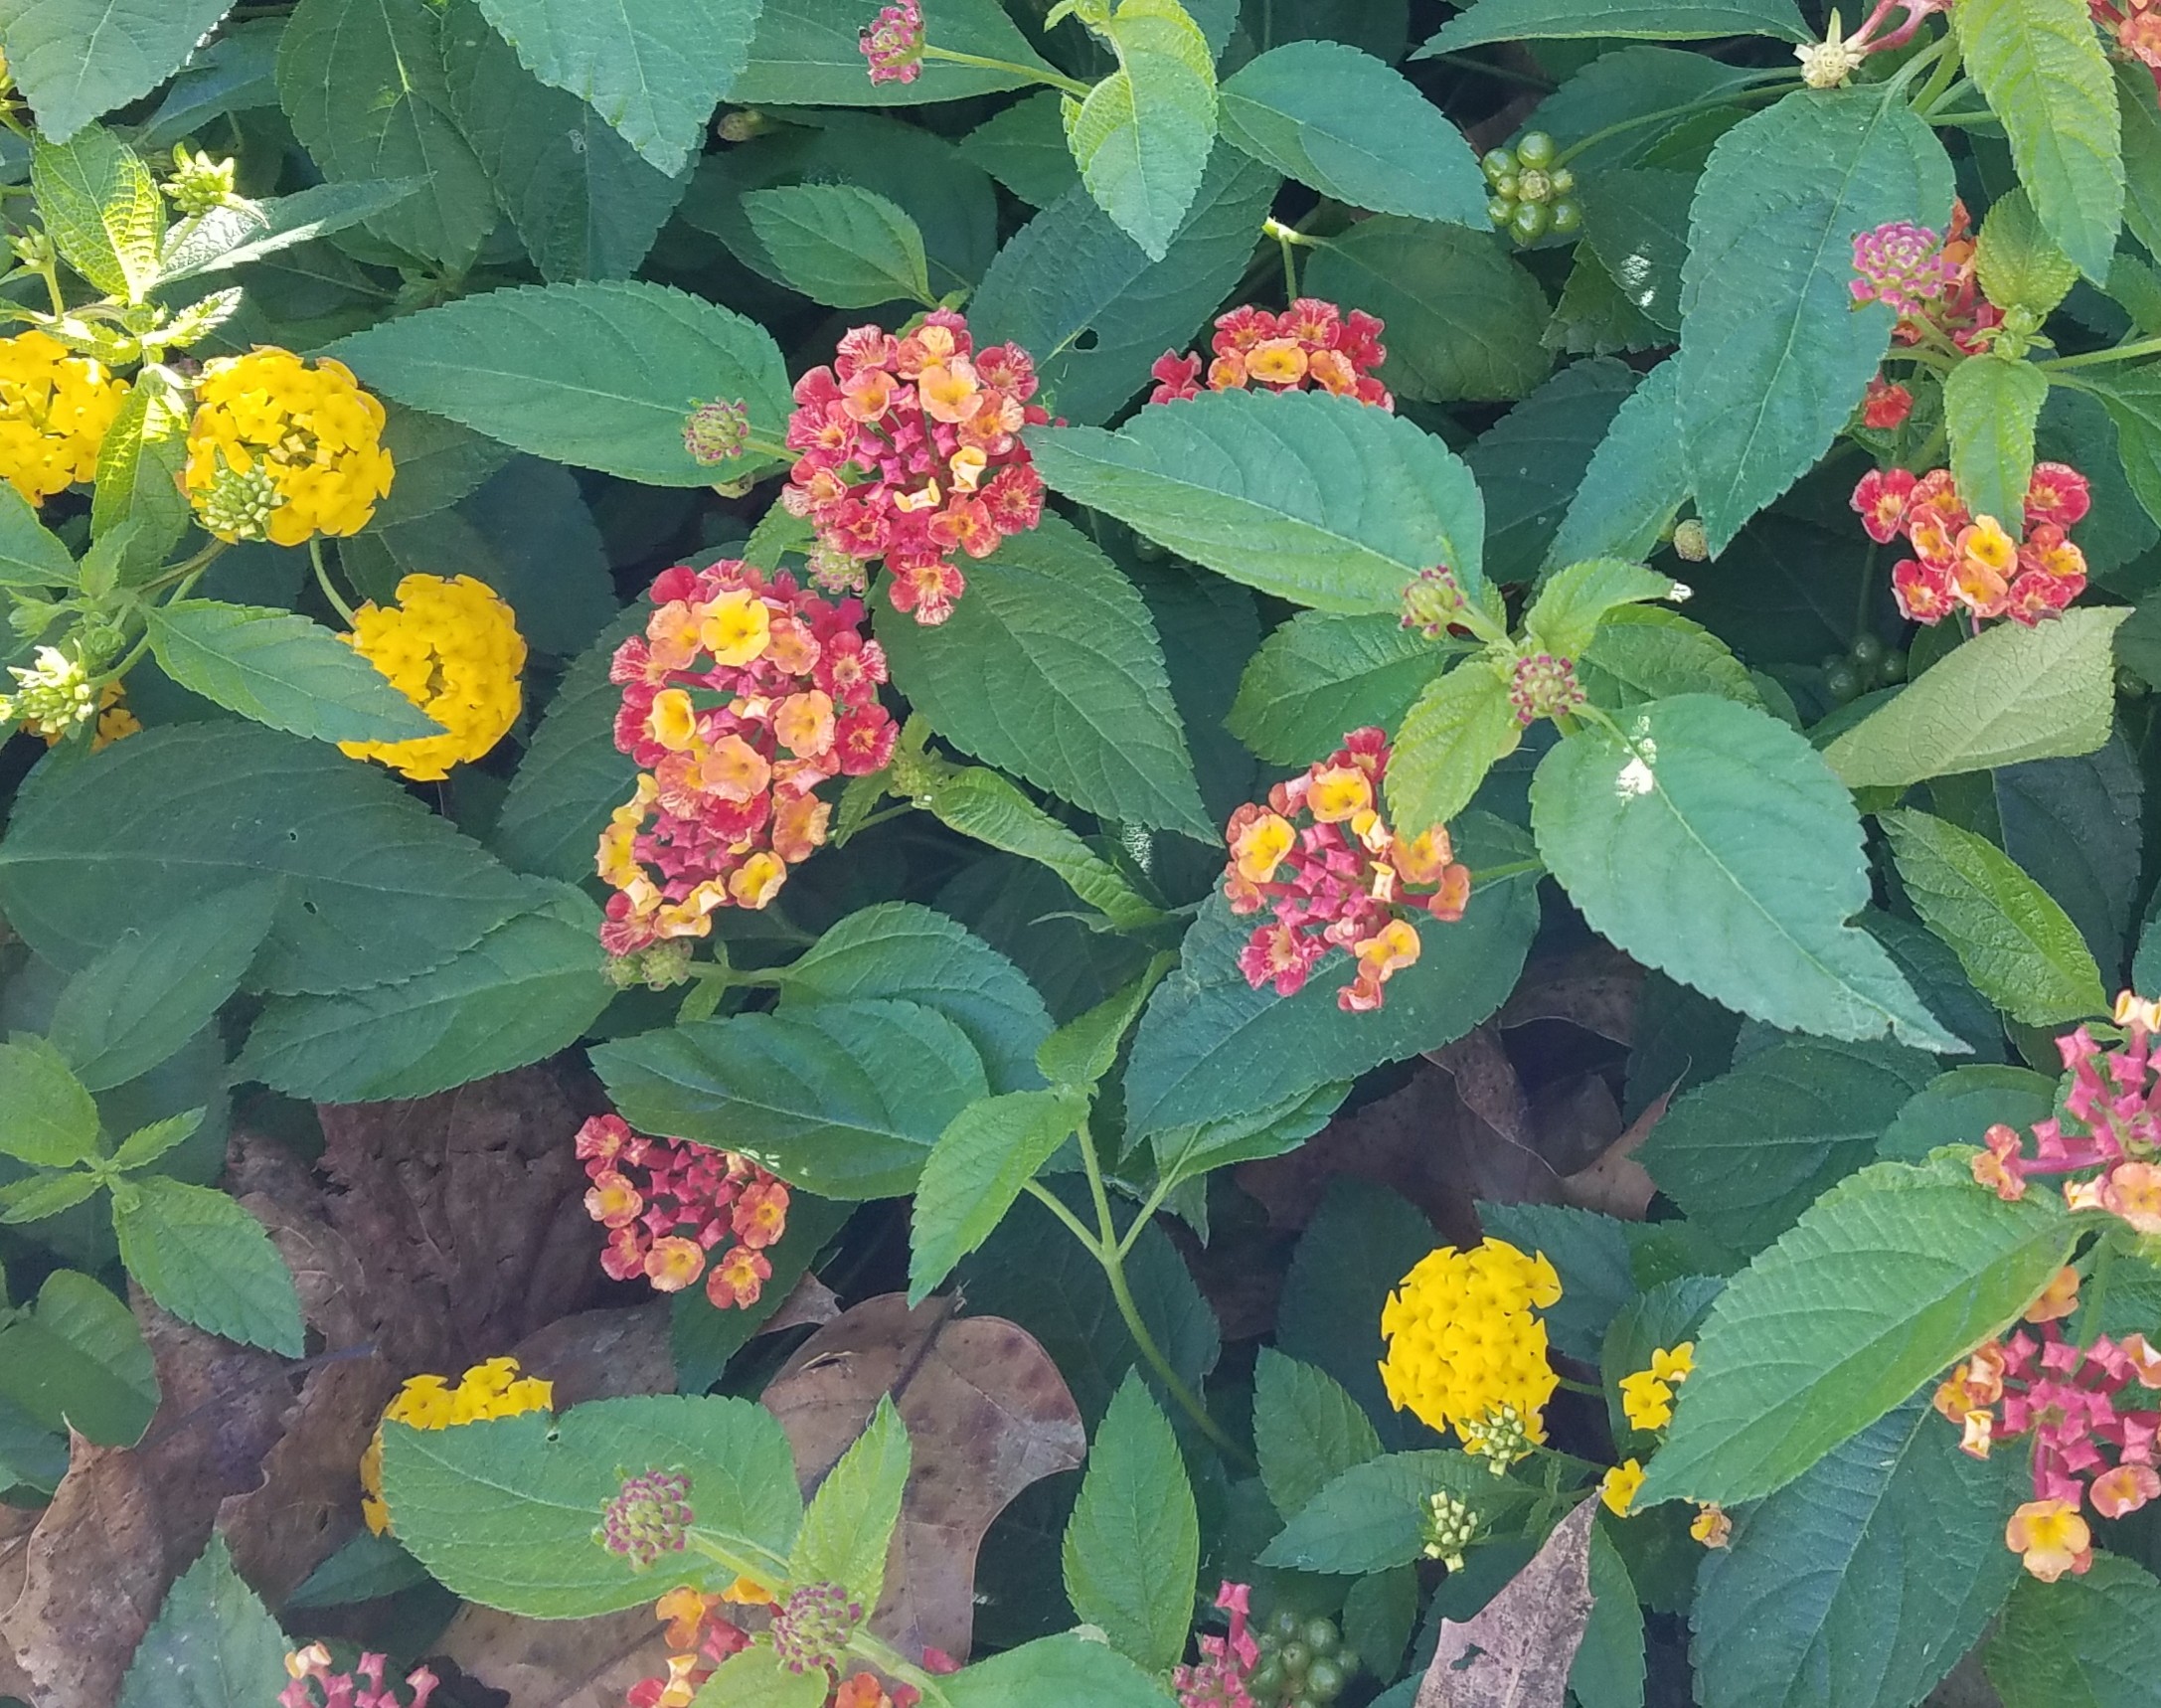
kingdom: Plantae
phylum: Tracheophyta
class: Magnoliopsida
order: Lamiales
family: Verbenaceae
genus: Lantana
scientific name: Lantana camara
